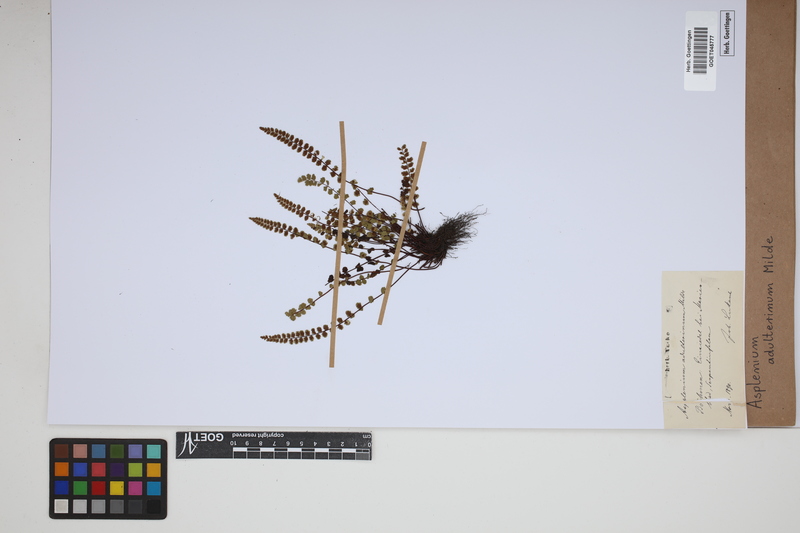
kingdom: Plantae
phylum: Tracheophyta
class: Polypodiopsida
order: Polypodiales
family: Aspleniaceae
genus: Asplenium
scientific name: Asplenium adulterinum
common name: Adulterated spleenwort
